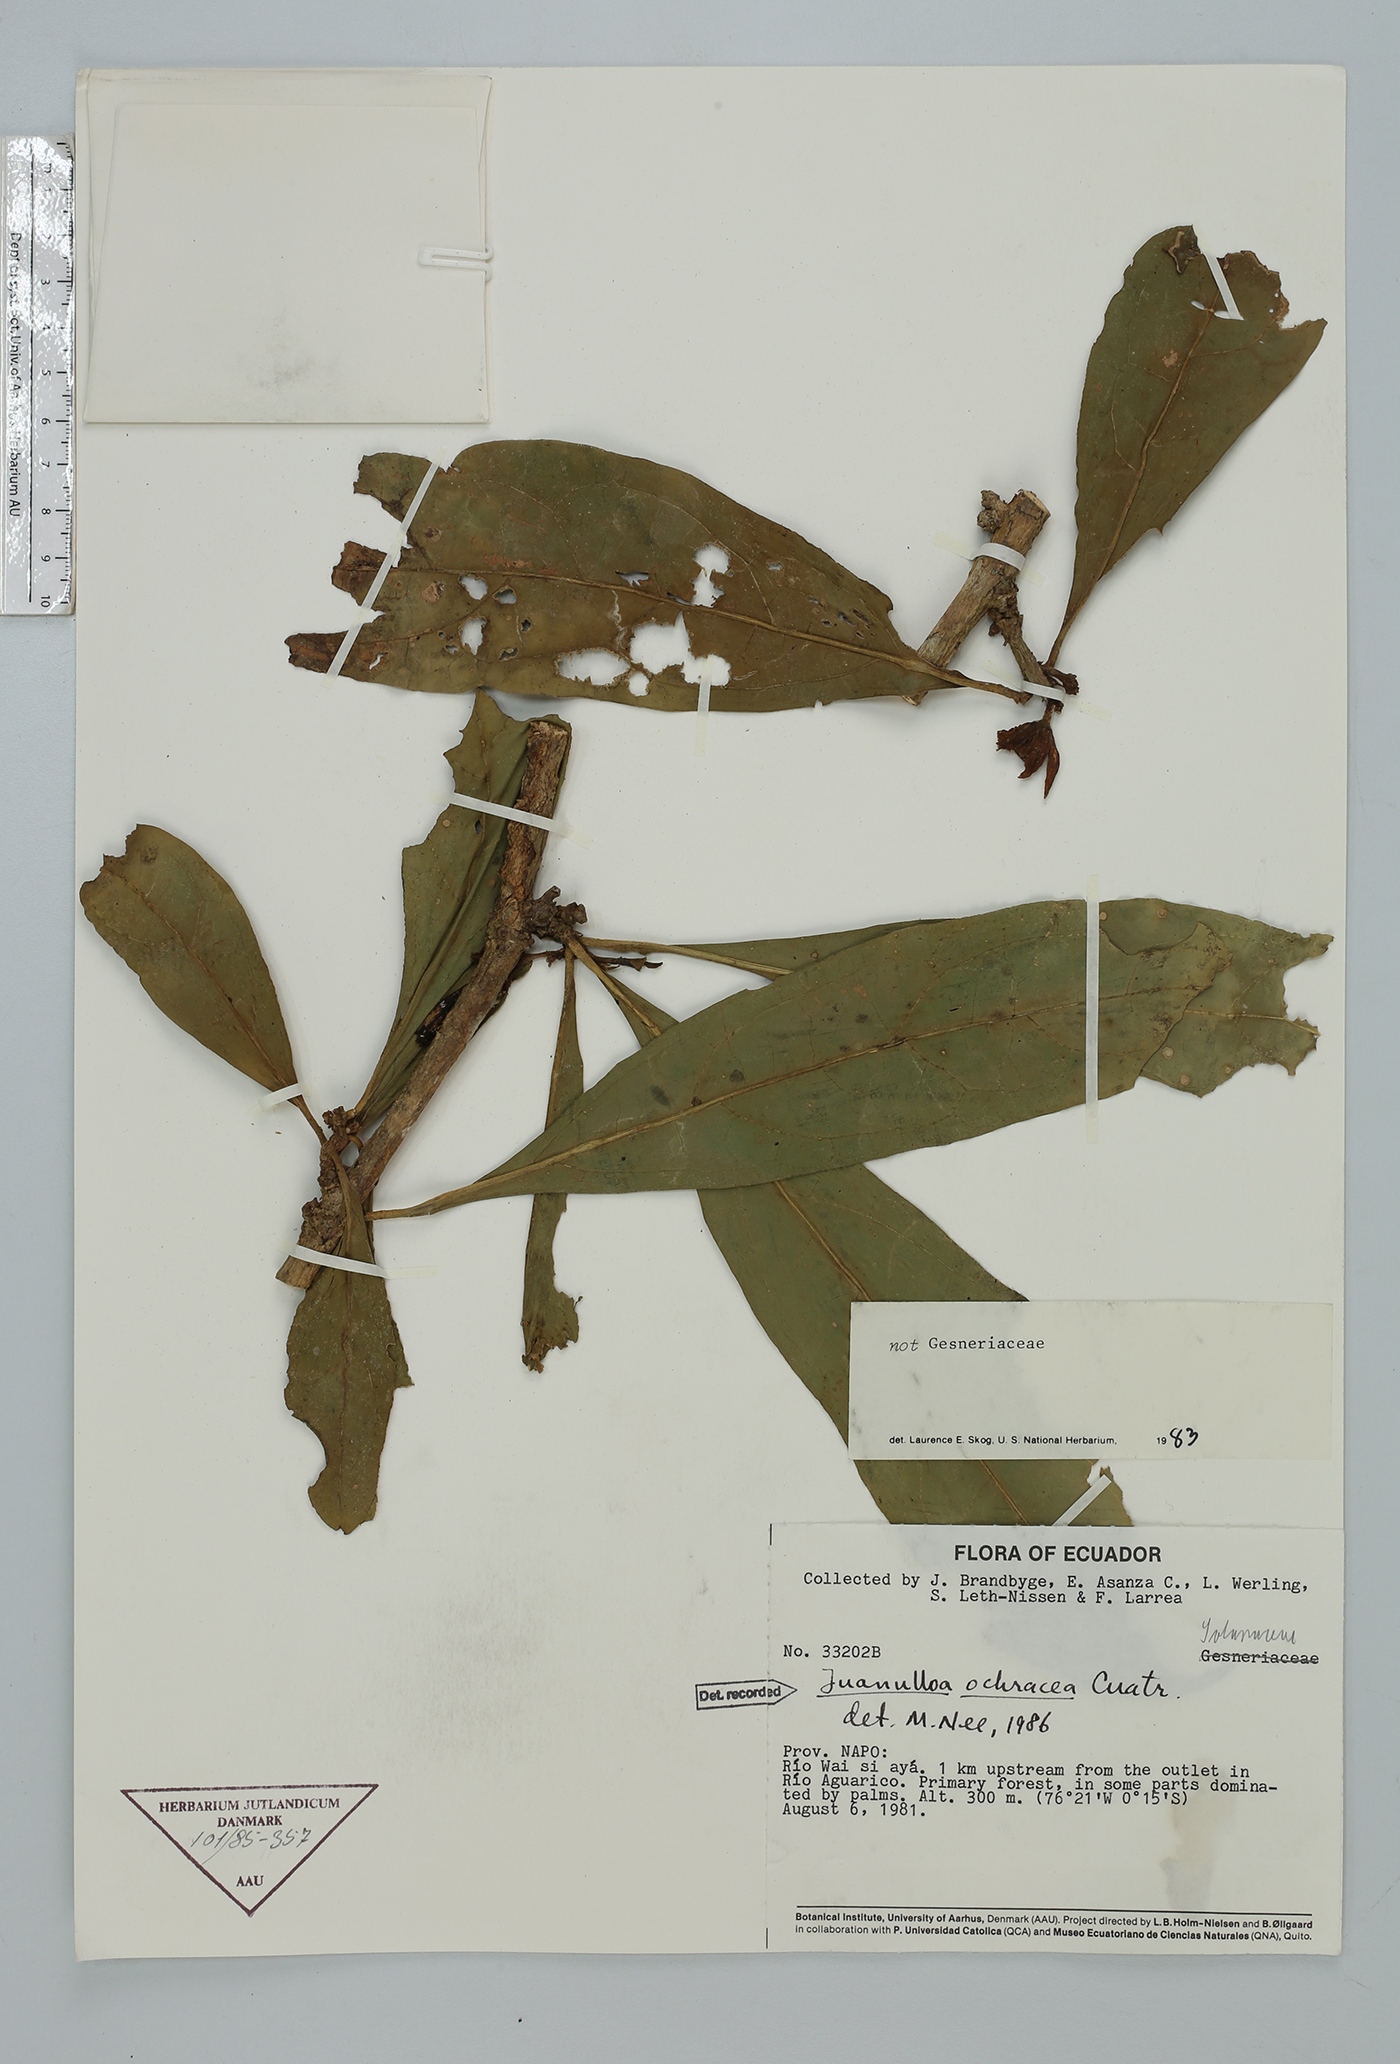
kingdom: Plantae
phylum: Tracheophyta
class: Magnoliopsida
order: Solanales
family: Solanaceae
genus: Hawkesiophyton
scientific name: Hawkesiophyton ochraceum
